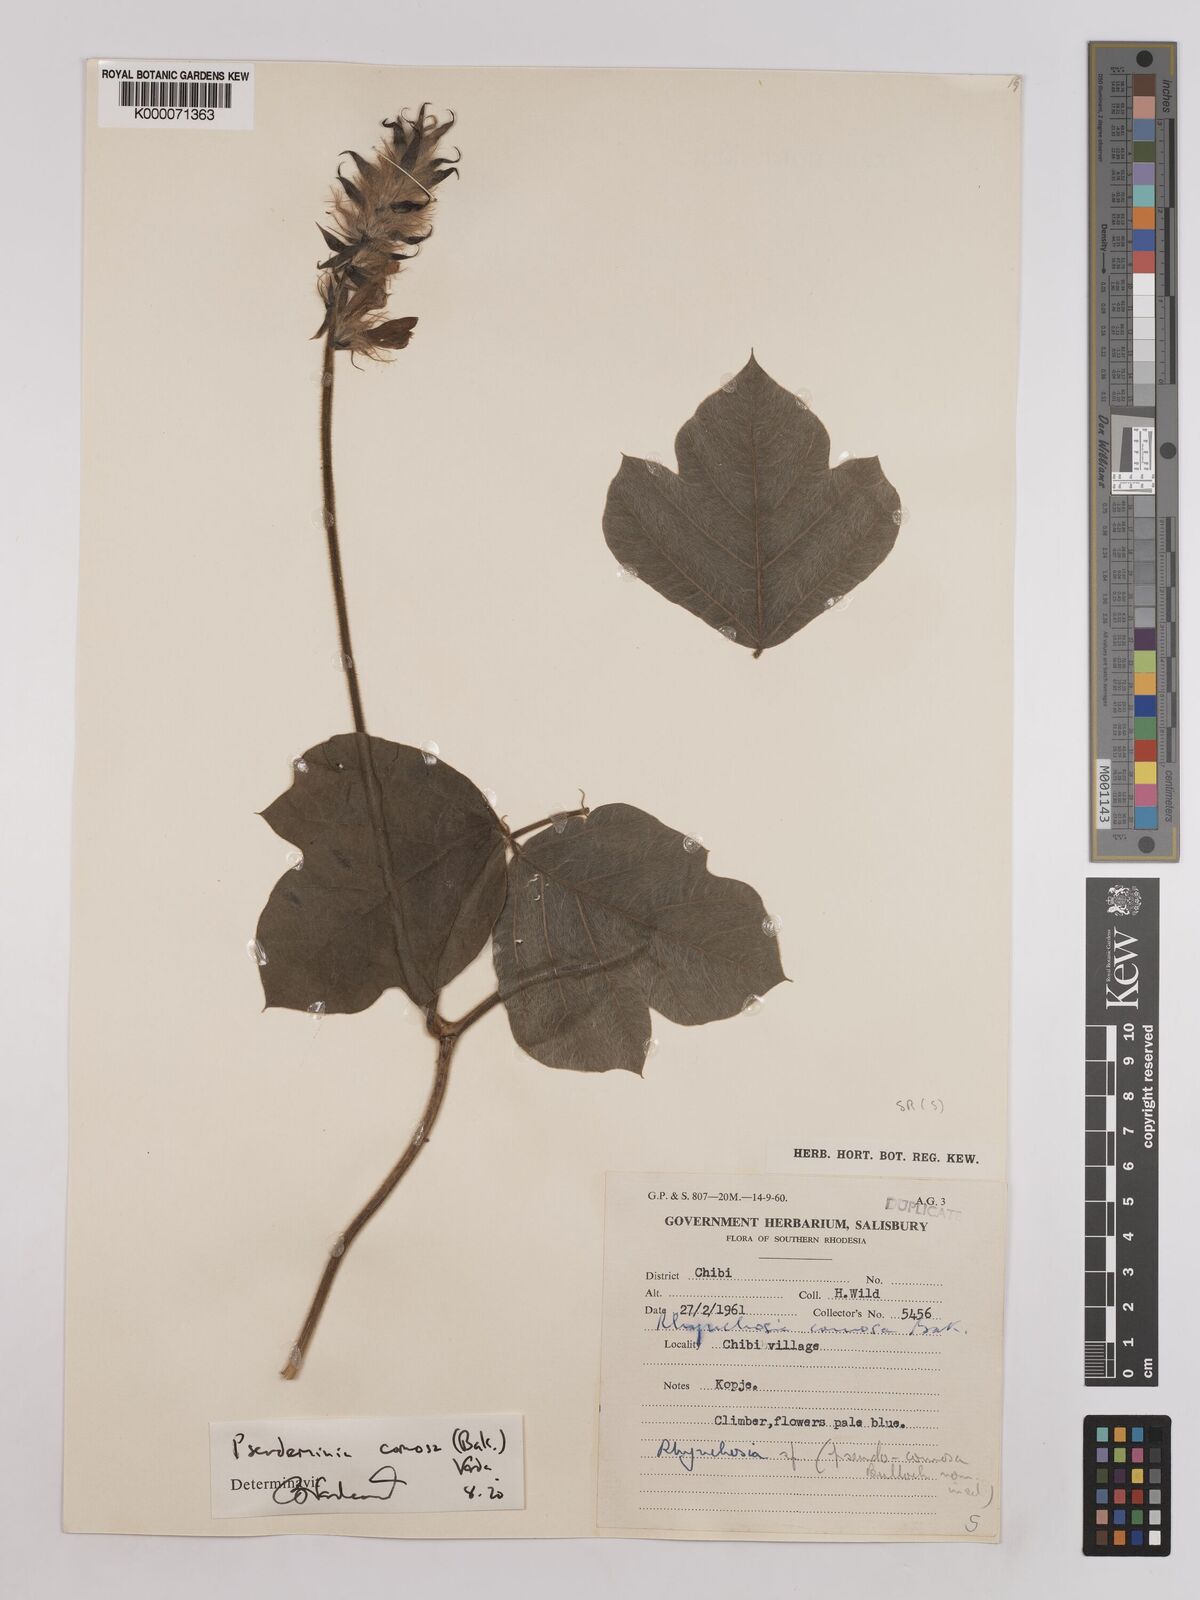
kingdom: Plantae
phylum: Tracheophyta
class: Magnoliopsida
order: Fabales
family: Fabaceae
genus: Pseudeminia
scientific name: Pseudeminia comosa
